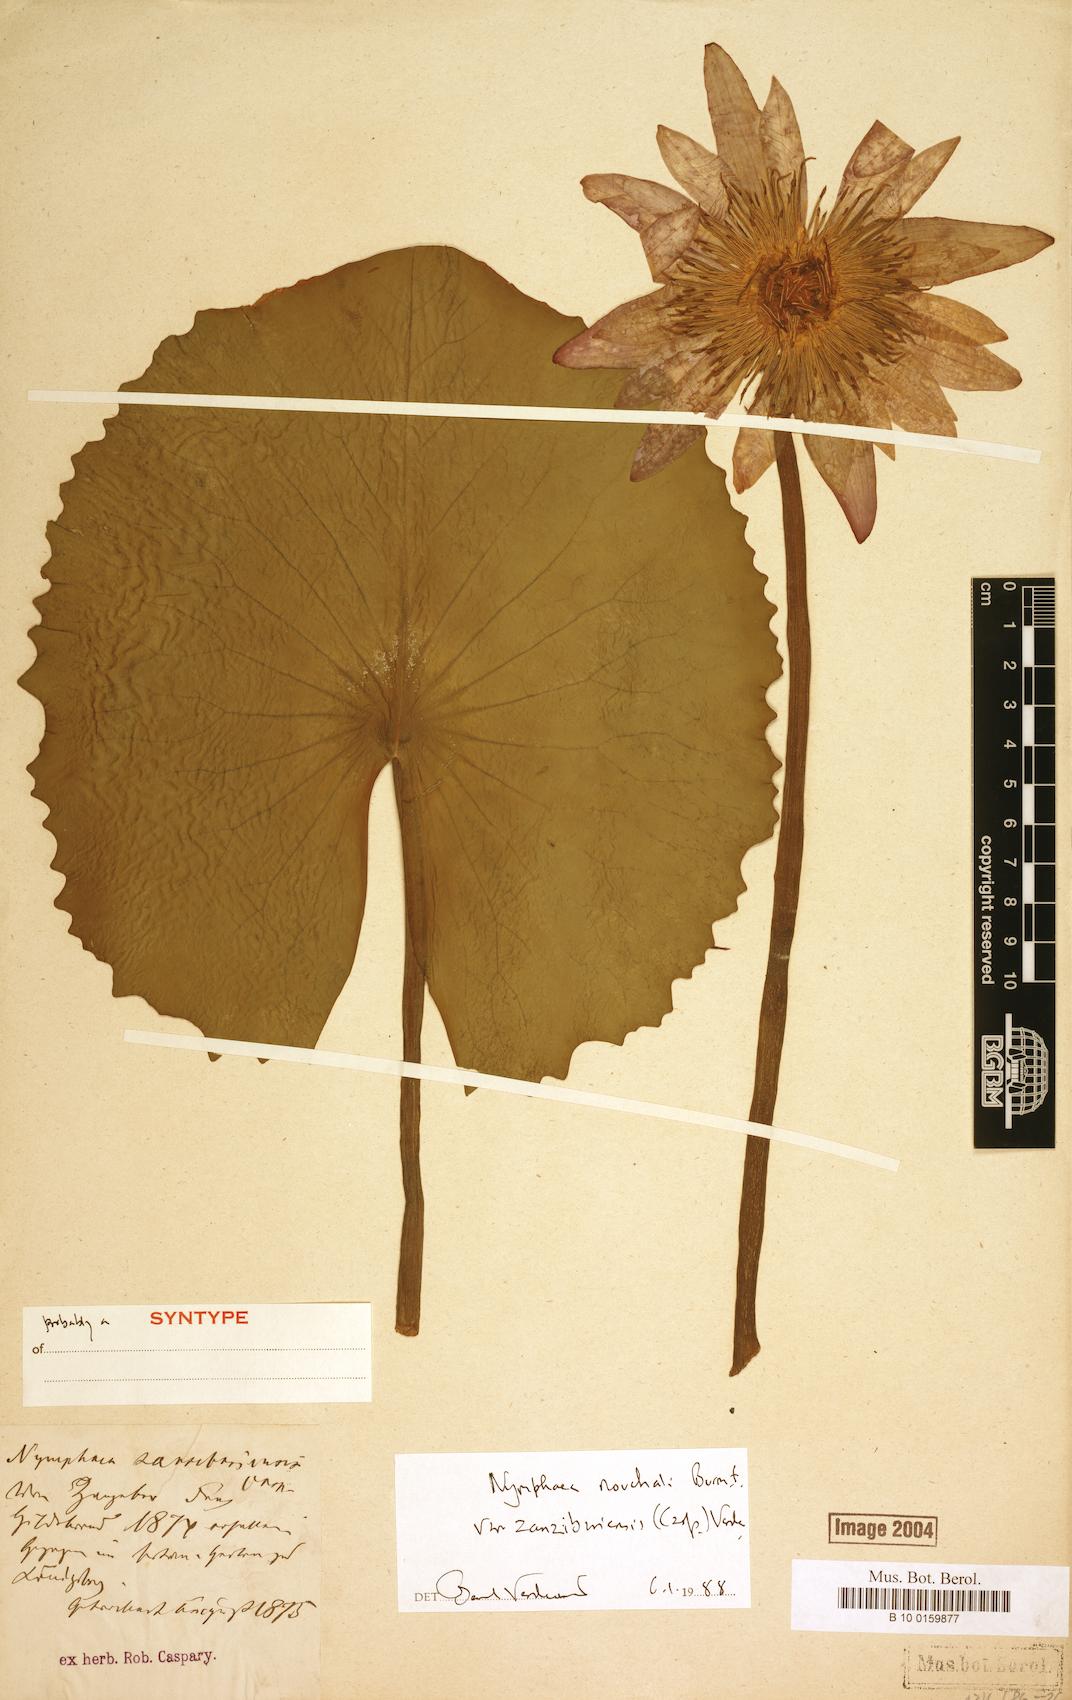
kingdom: Plantae
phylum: Tracheophyta
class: Magnoliopsida
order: Nymphaeales
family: Nymphaeaceae
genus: Nymphaea
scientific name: Nymphaea nouchali
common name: Blue lotus
